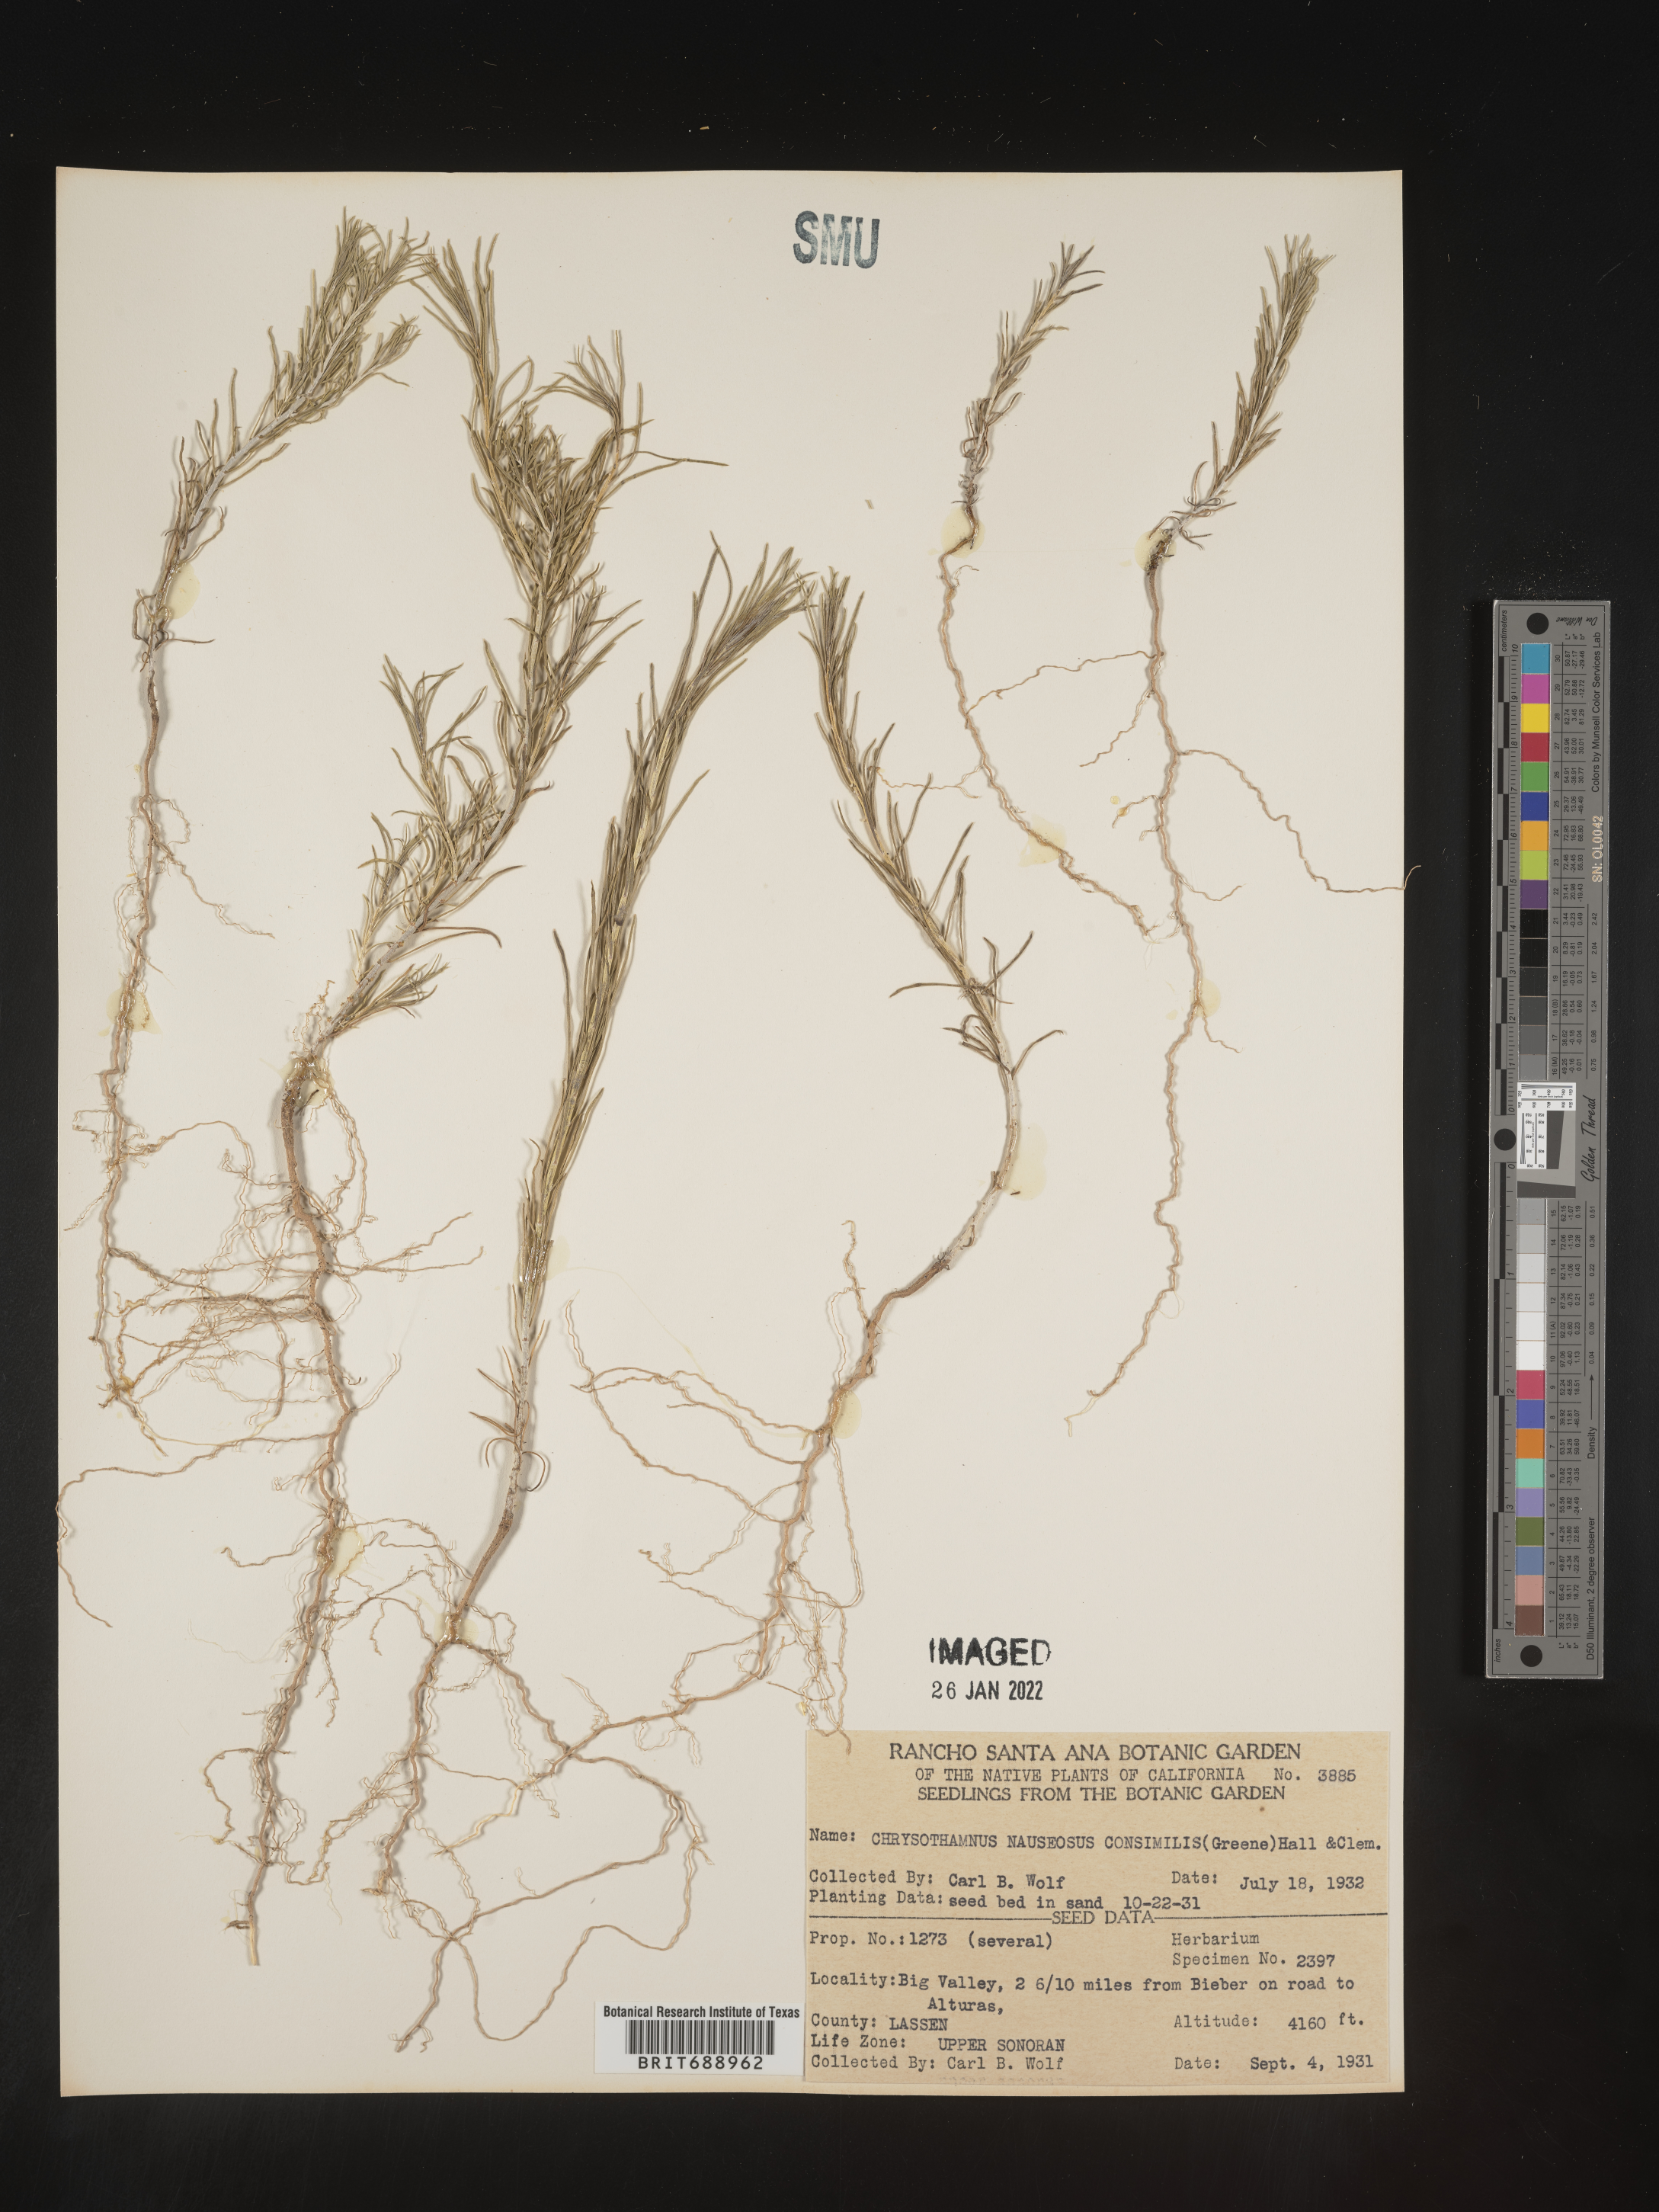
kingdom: Plantae
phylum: Tracheophyta
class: Magnoliopsida
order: Asterales
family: Asteraceae
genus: Ericameria
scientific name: Ericameria nauseosa
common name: Rubber rabbitbrush
